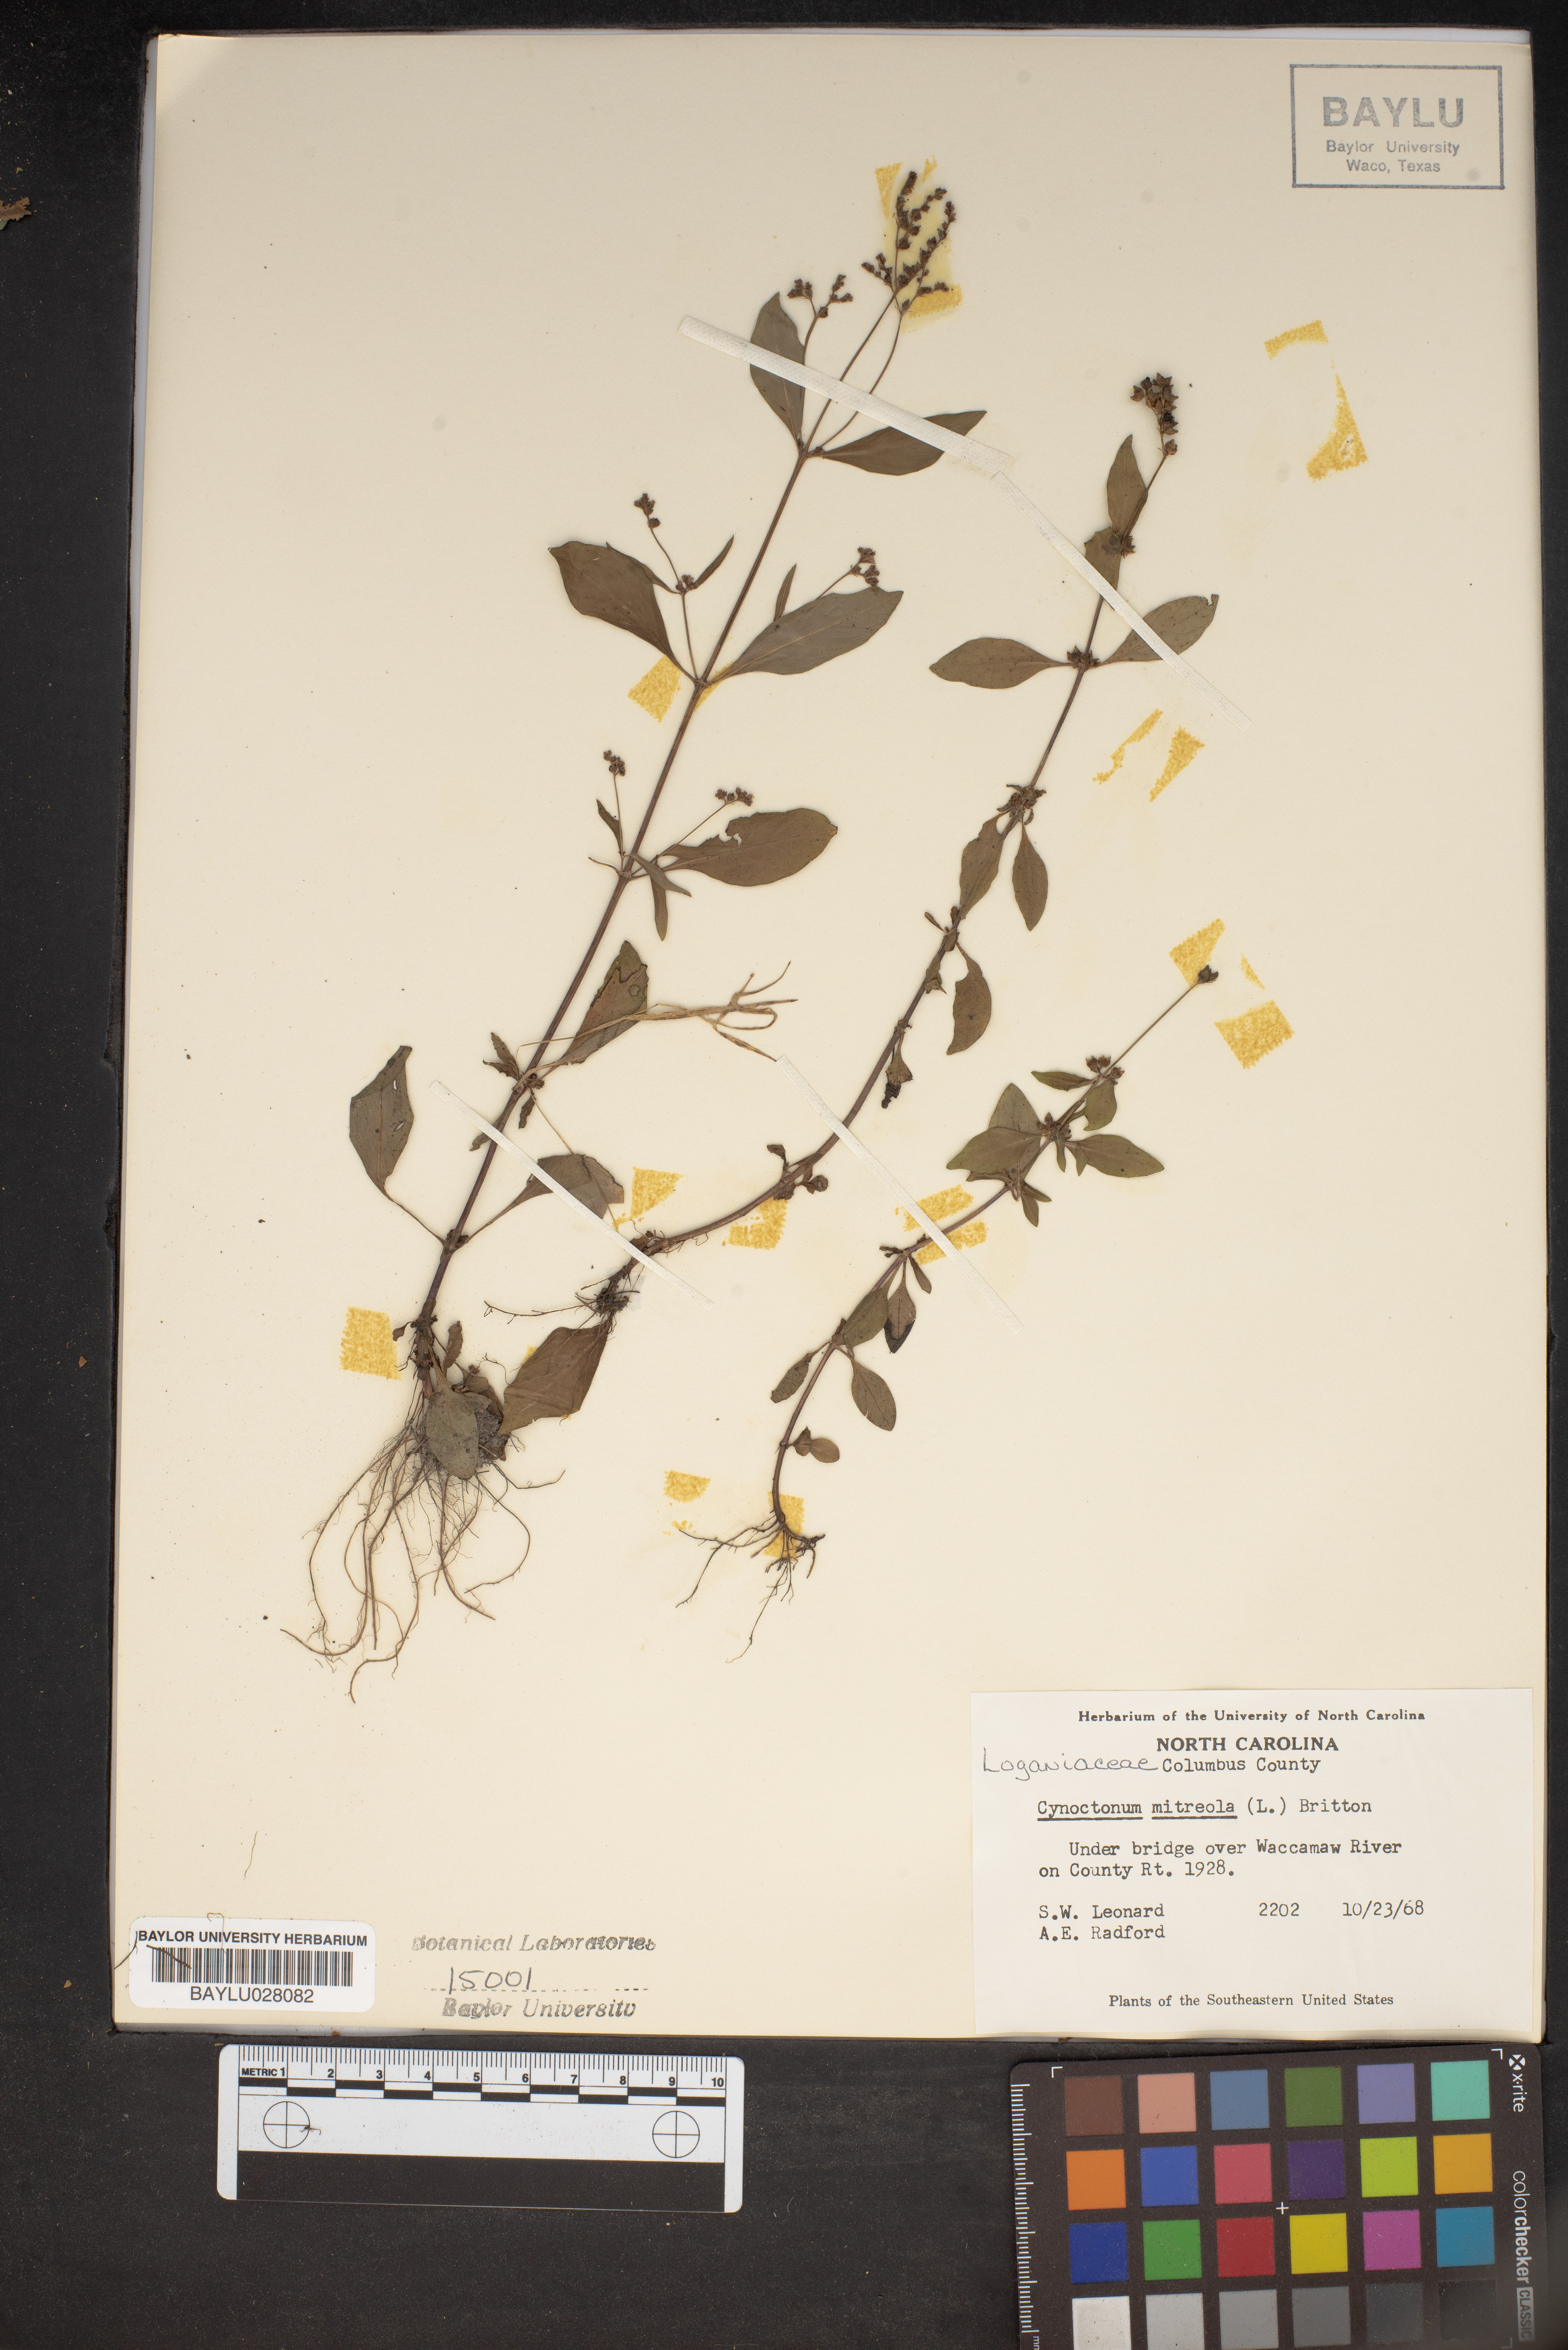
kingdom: Plantae
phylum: Tracheophyta
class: Magnoliopsida
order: Gentianales
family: Loganiaceae
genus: Mitreola
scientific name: Mitreola petiolata
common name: Lax hornpod
